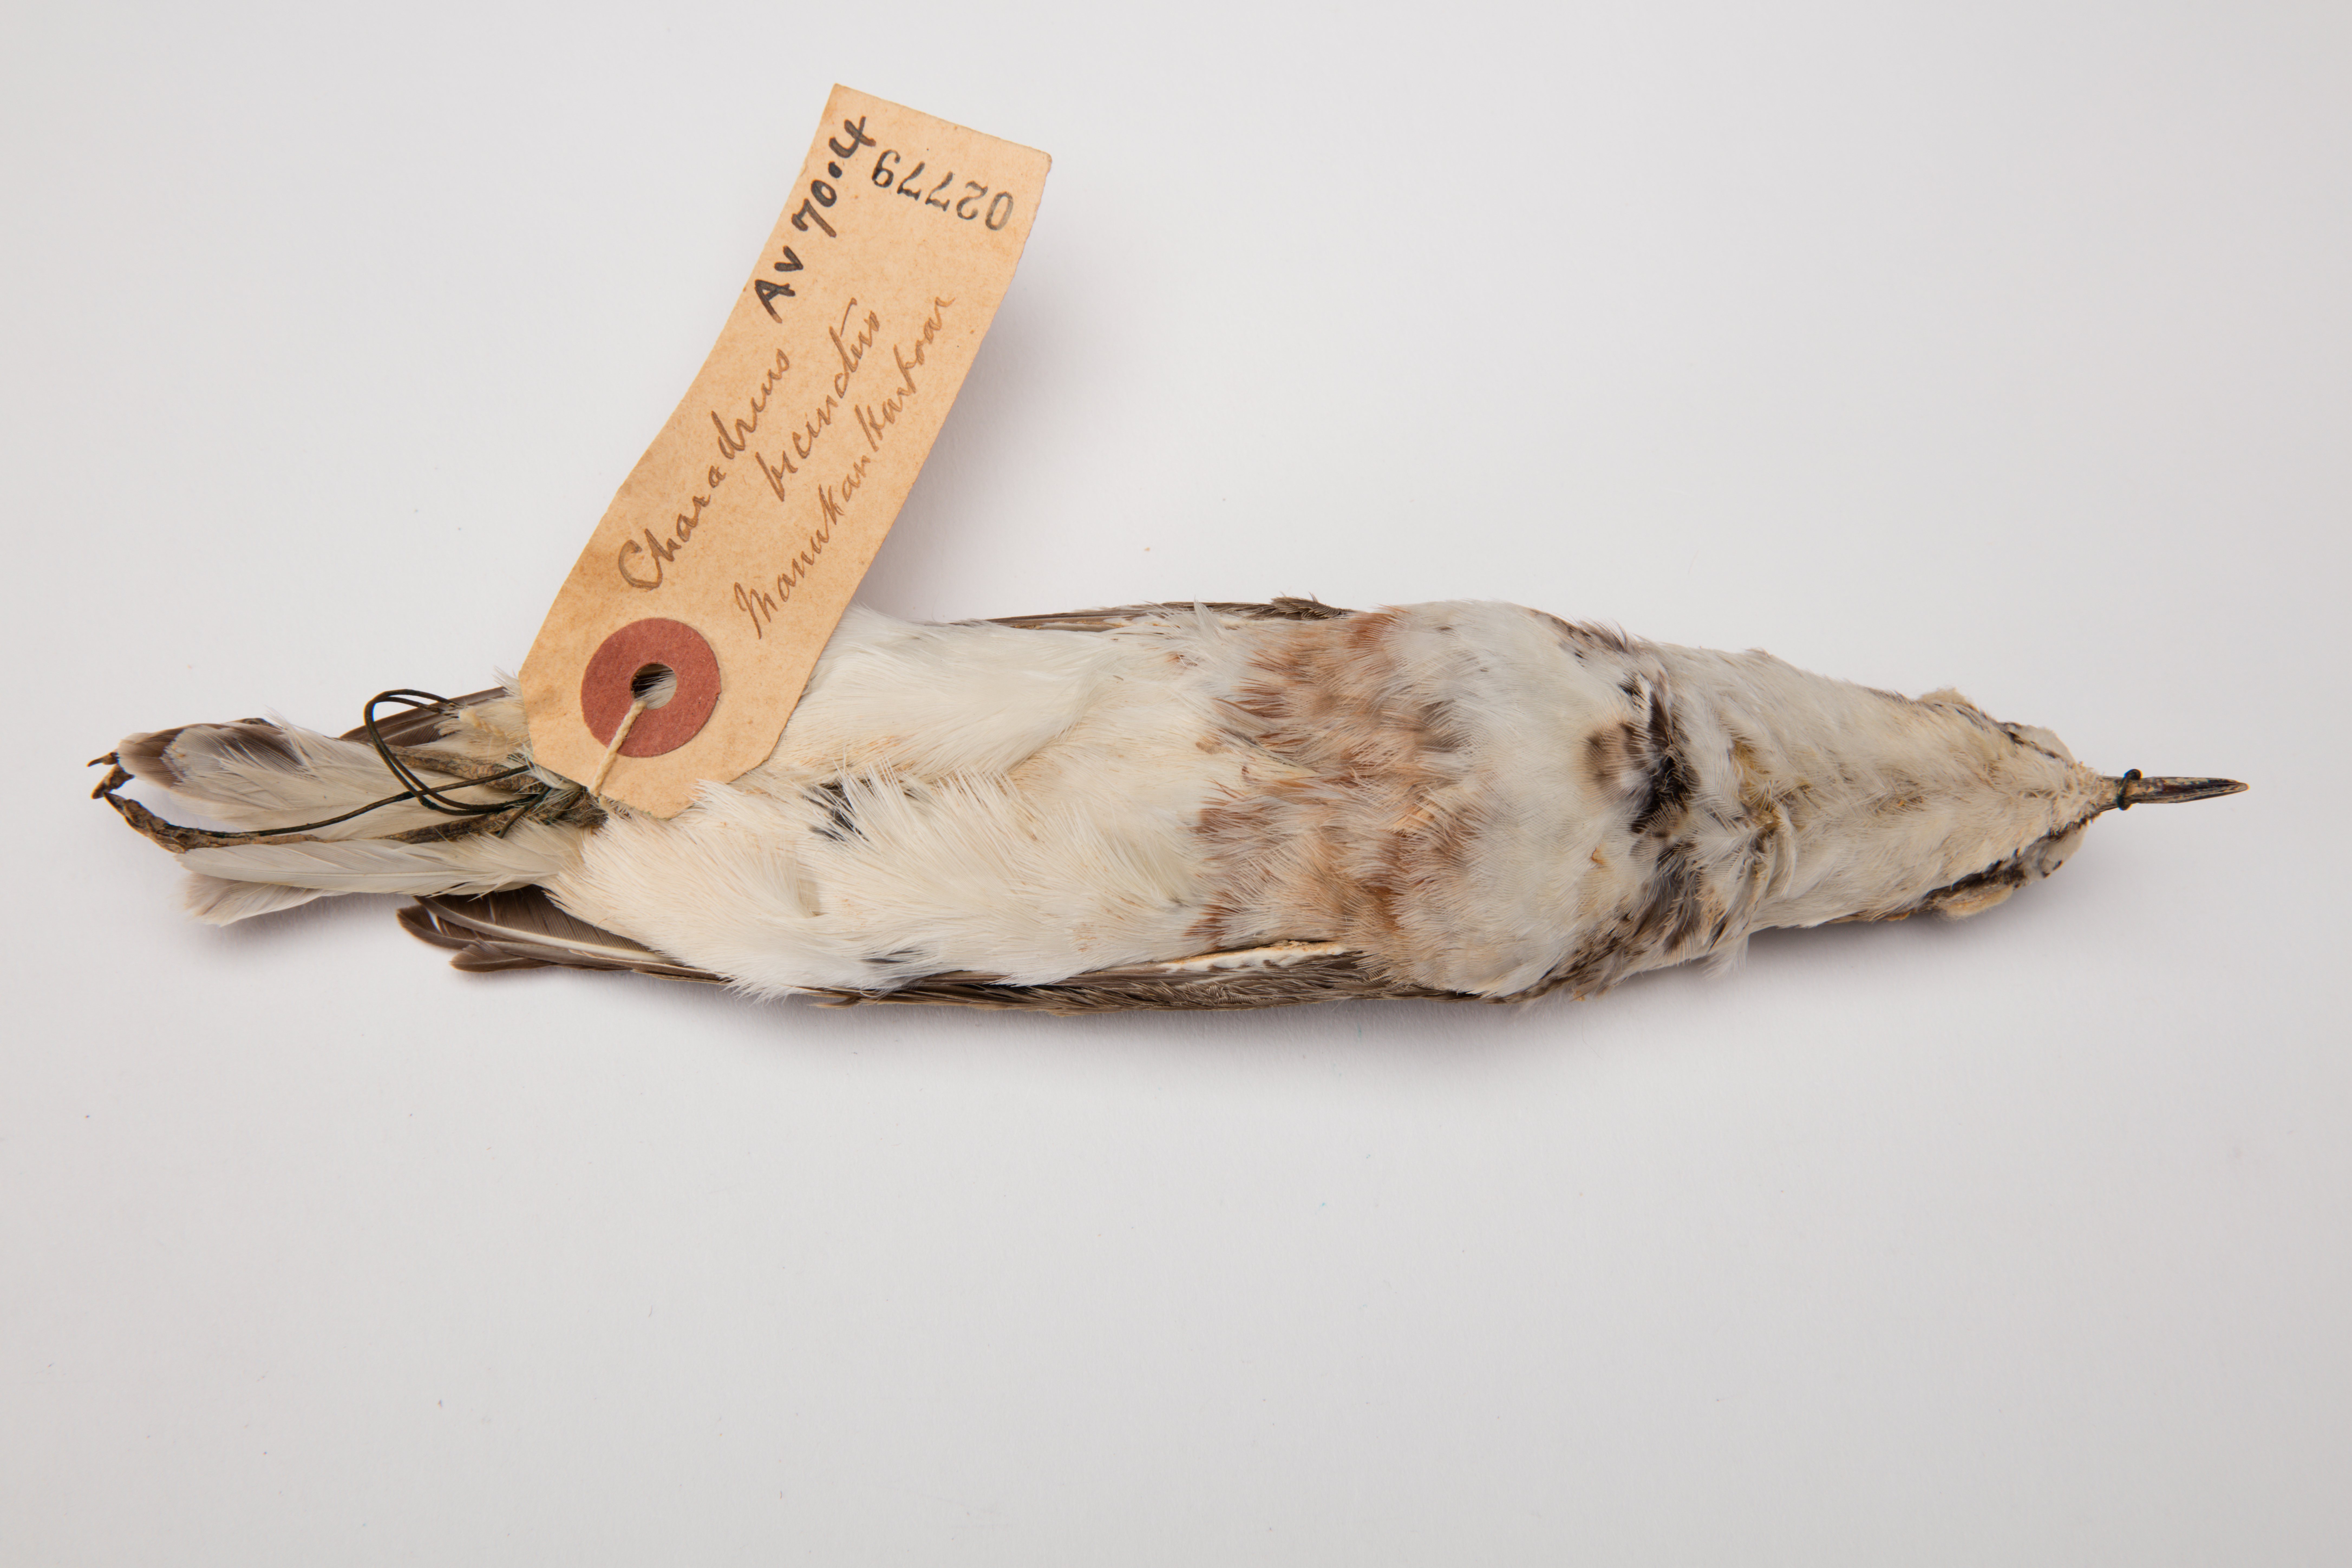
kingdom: Animalia
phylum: Chordata
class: Aves
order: Charadriiformes
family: Charadriidae
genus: Charadrius
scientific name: Charadrius bicinctus
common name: Double-banded plover
